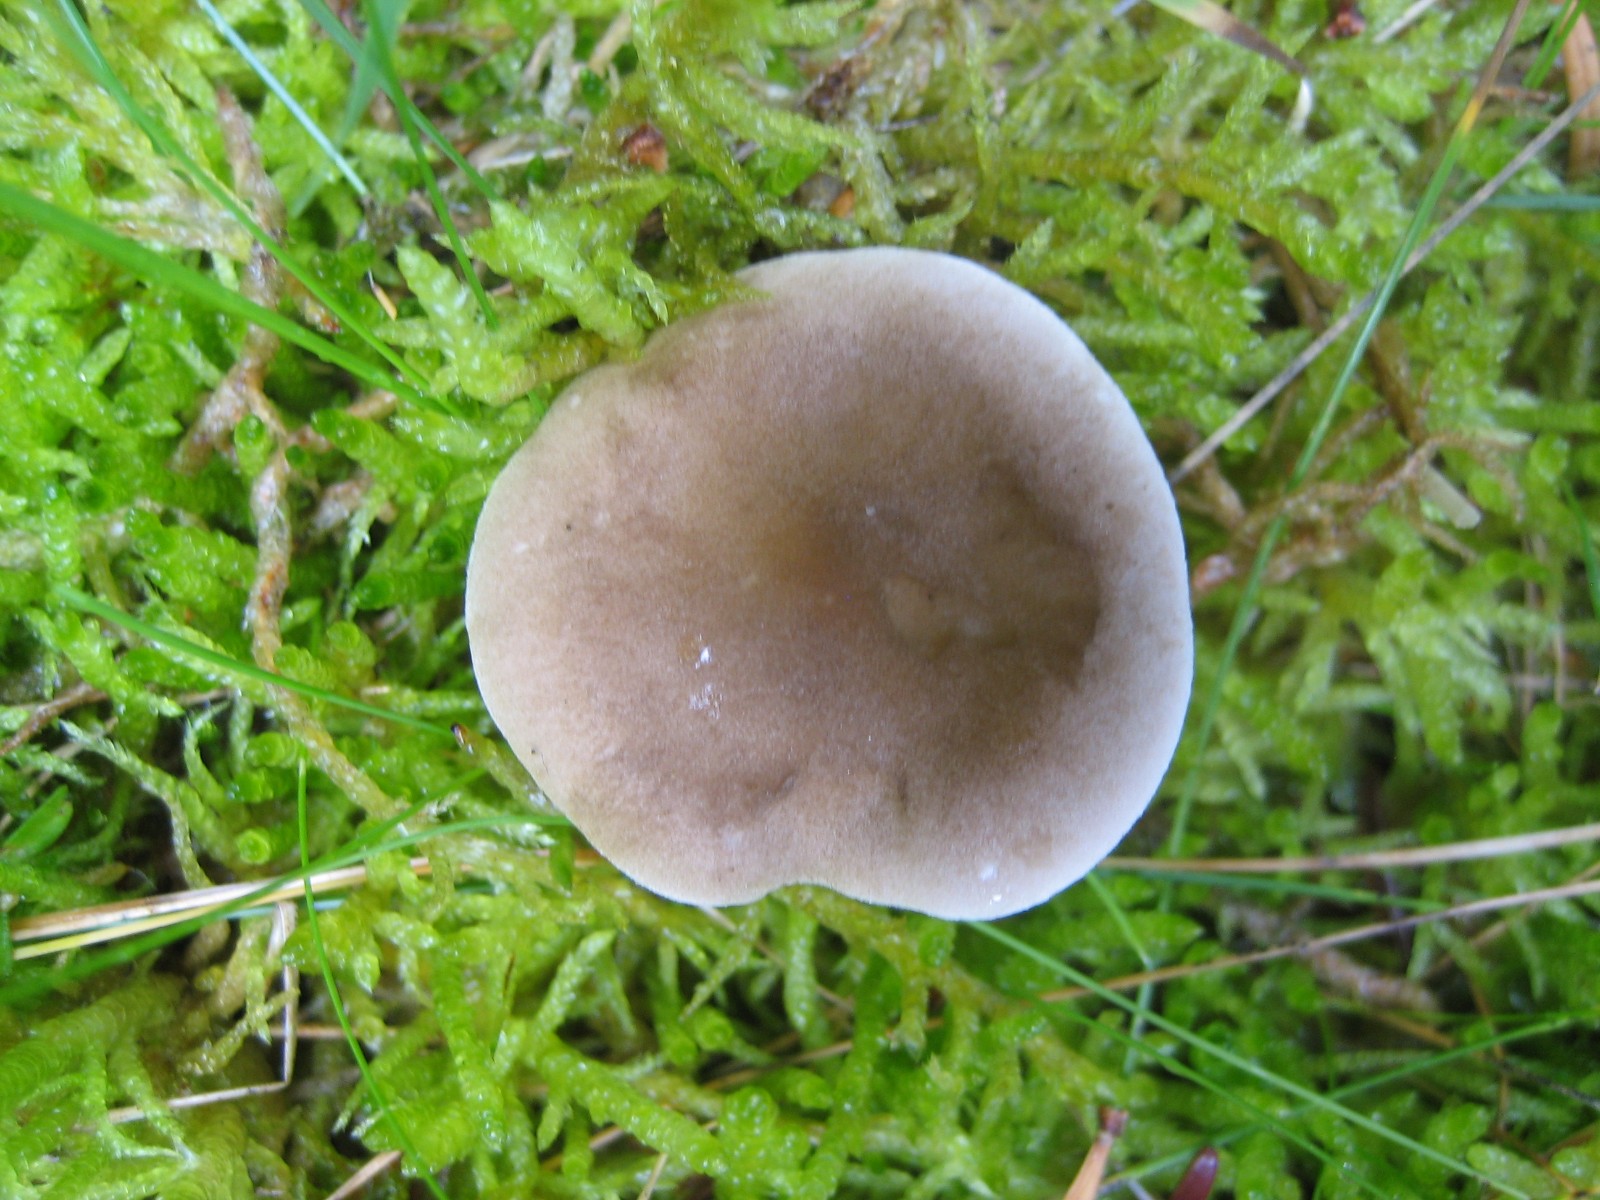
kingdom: Fungi
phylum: Basidiomycota
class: Agaricomycetes
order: Agaricales
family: Hygrophoraceae
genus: Ampulloclitocybe
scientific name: Ampulloclitocybe clavipes
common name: køllefod
